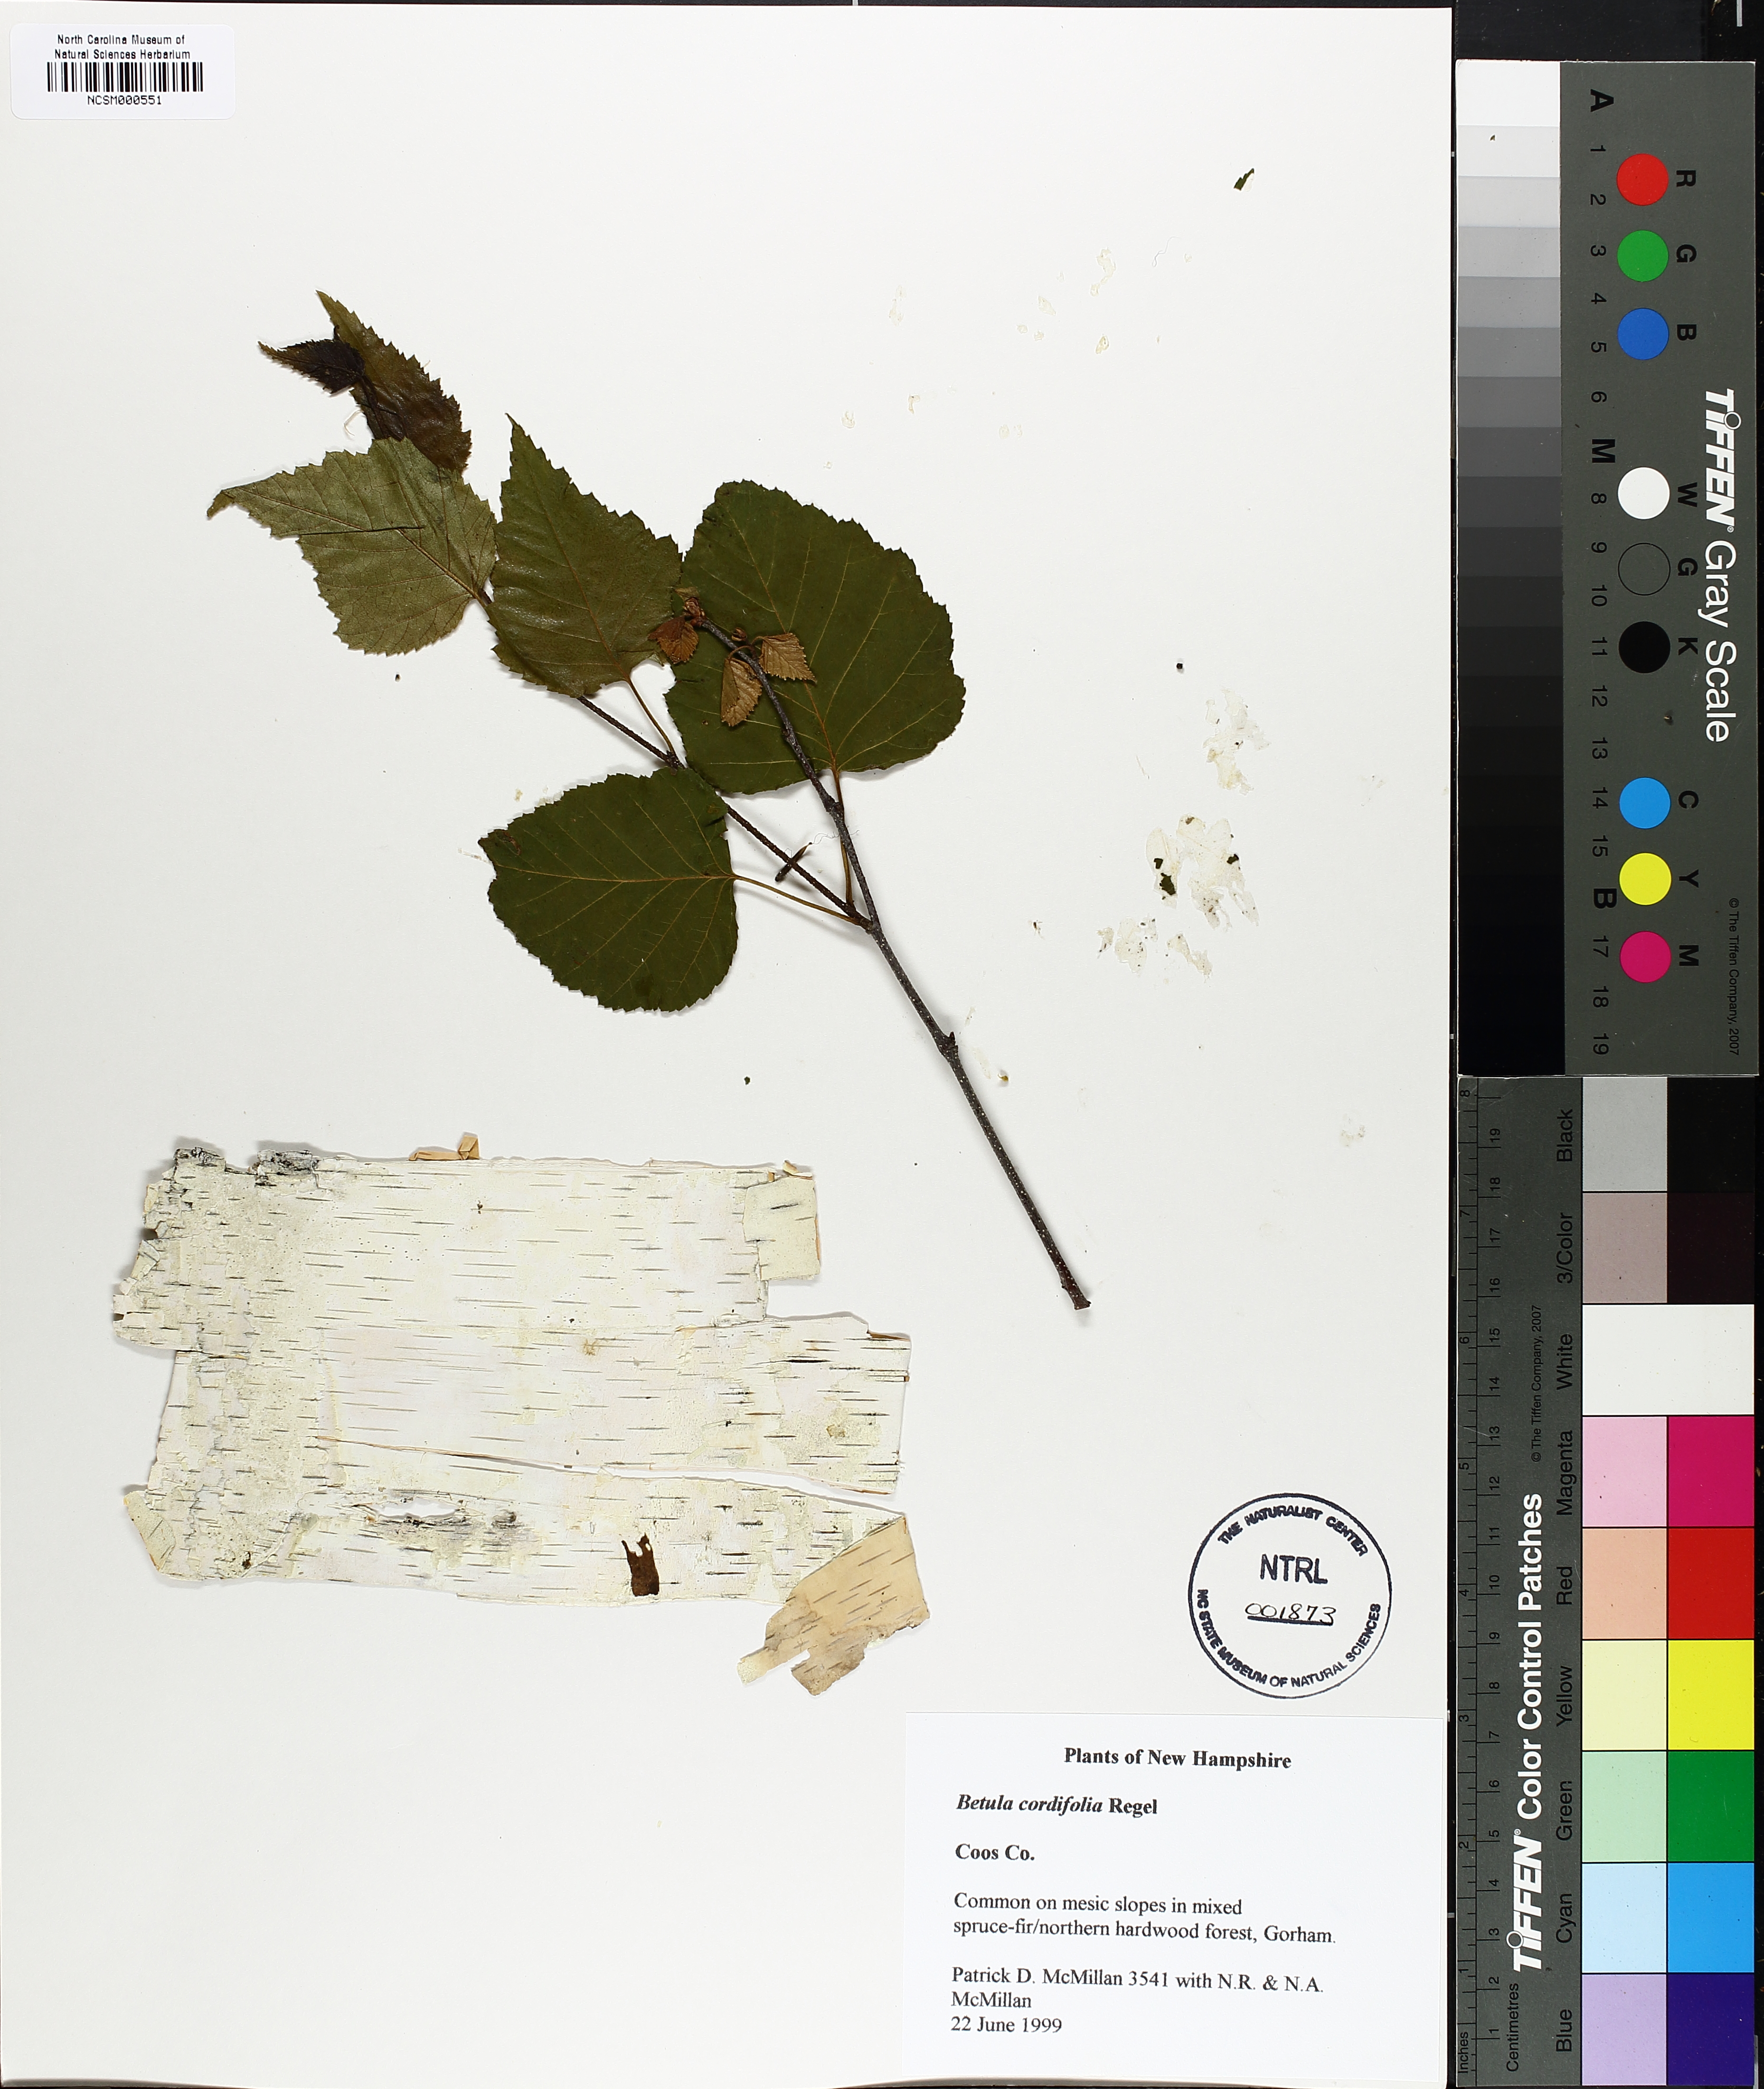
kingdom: Plantae
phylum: Tracheophyta
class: Magnoliopsida
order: Fagales
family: Betulaceae
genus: Betula
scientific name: Betula cordifolia
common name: Mountain white birch
